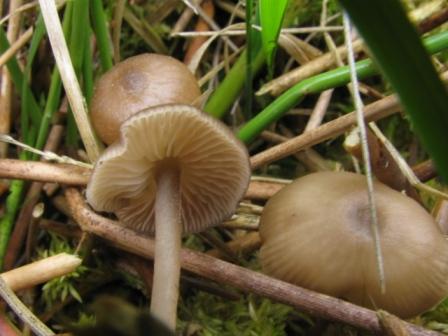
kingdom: Fungi
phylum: Basidiomycota
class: Agaricomycetes
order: Agaricales
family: Lyophyllaceae
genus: Sphagnurus
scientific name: Sphagnurus paluster
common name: tørvemos-gråblad
